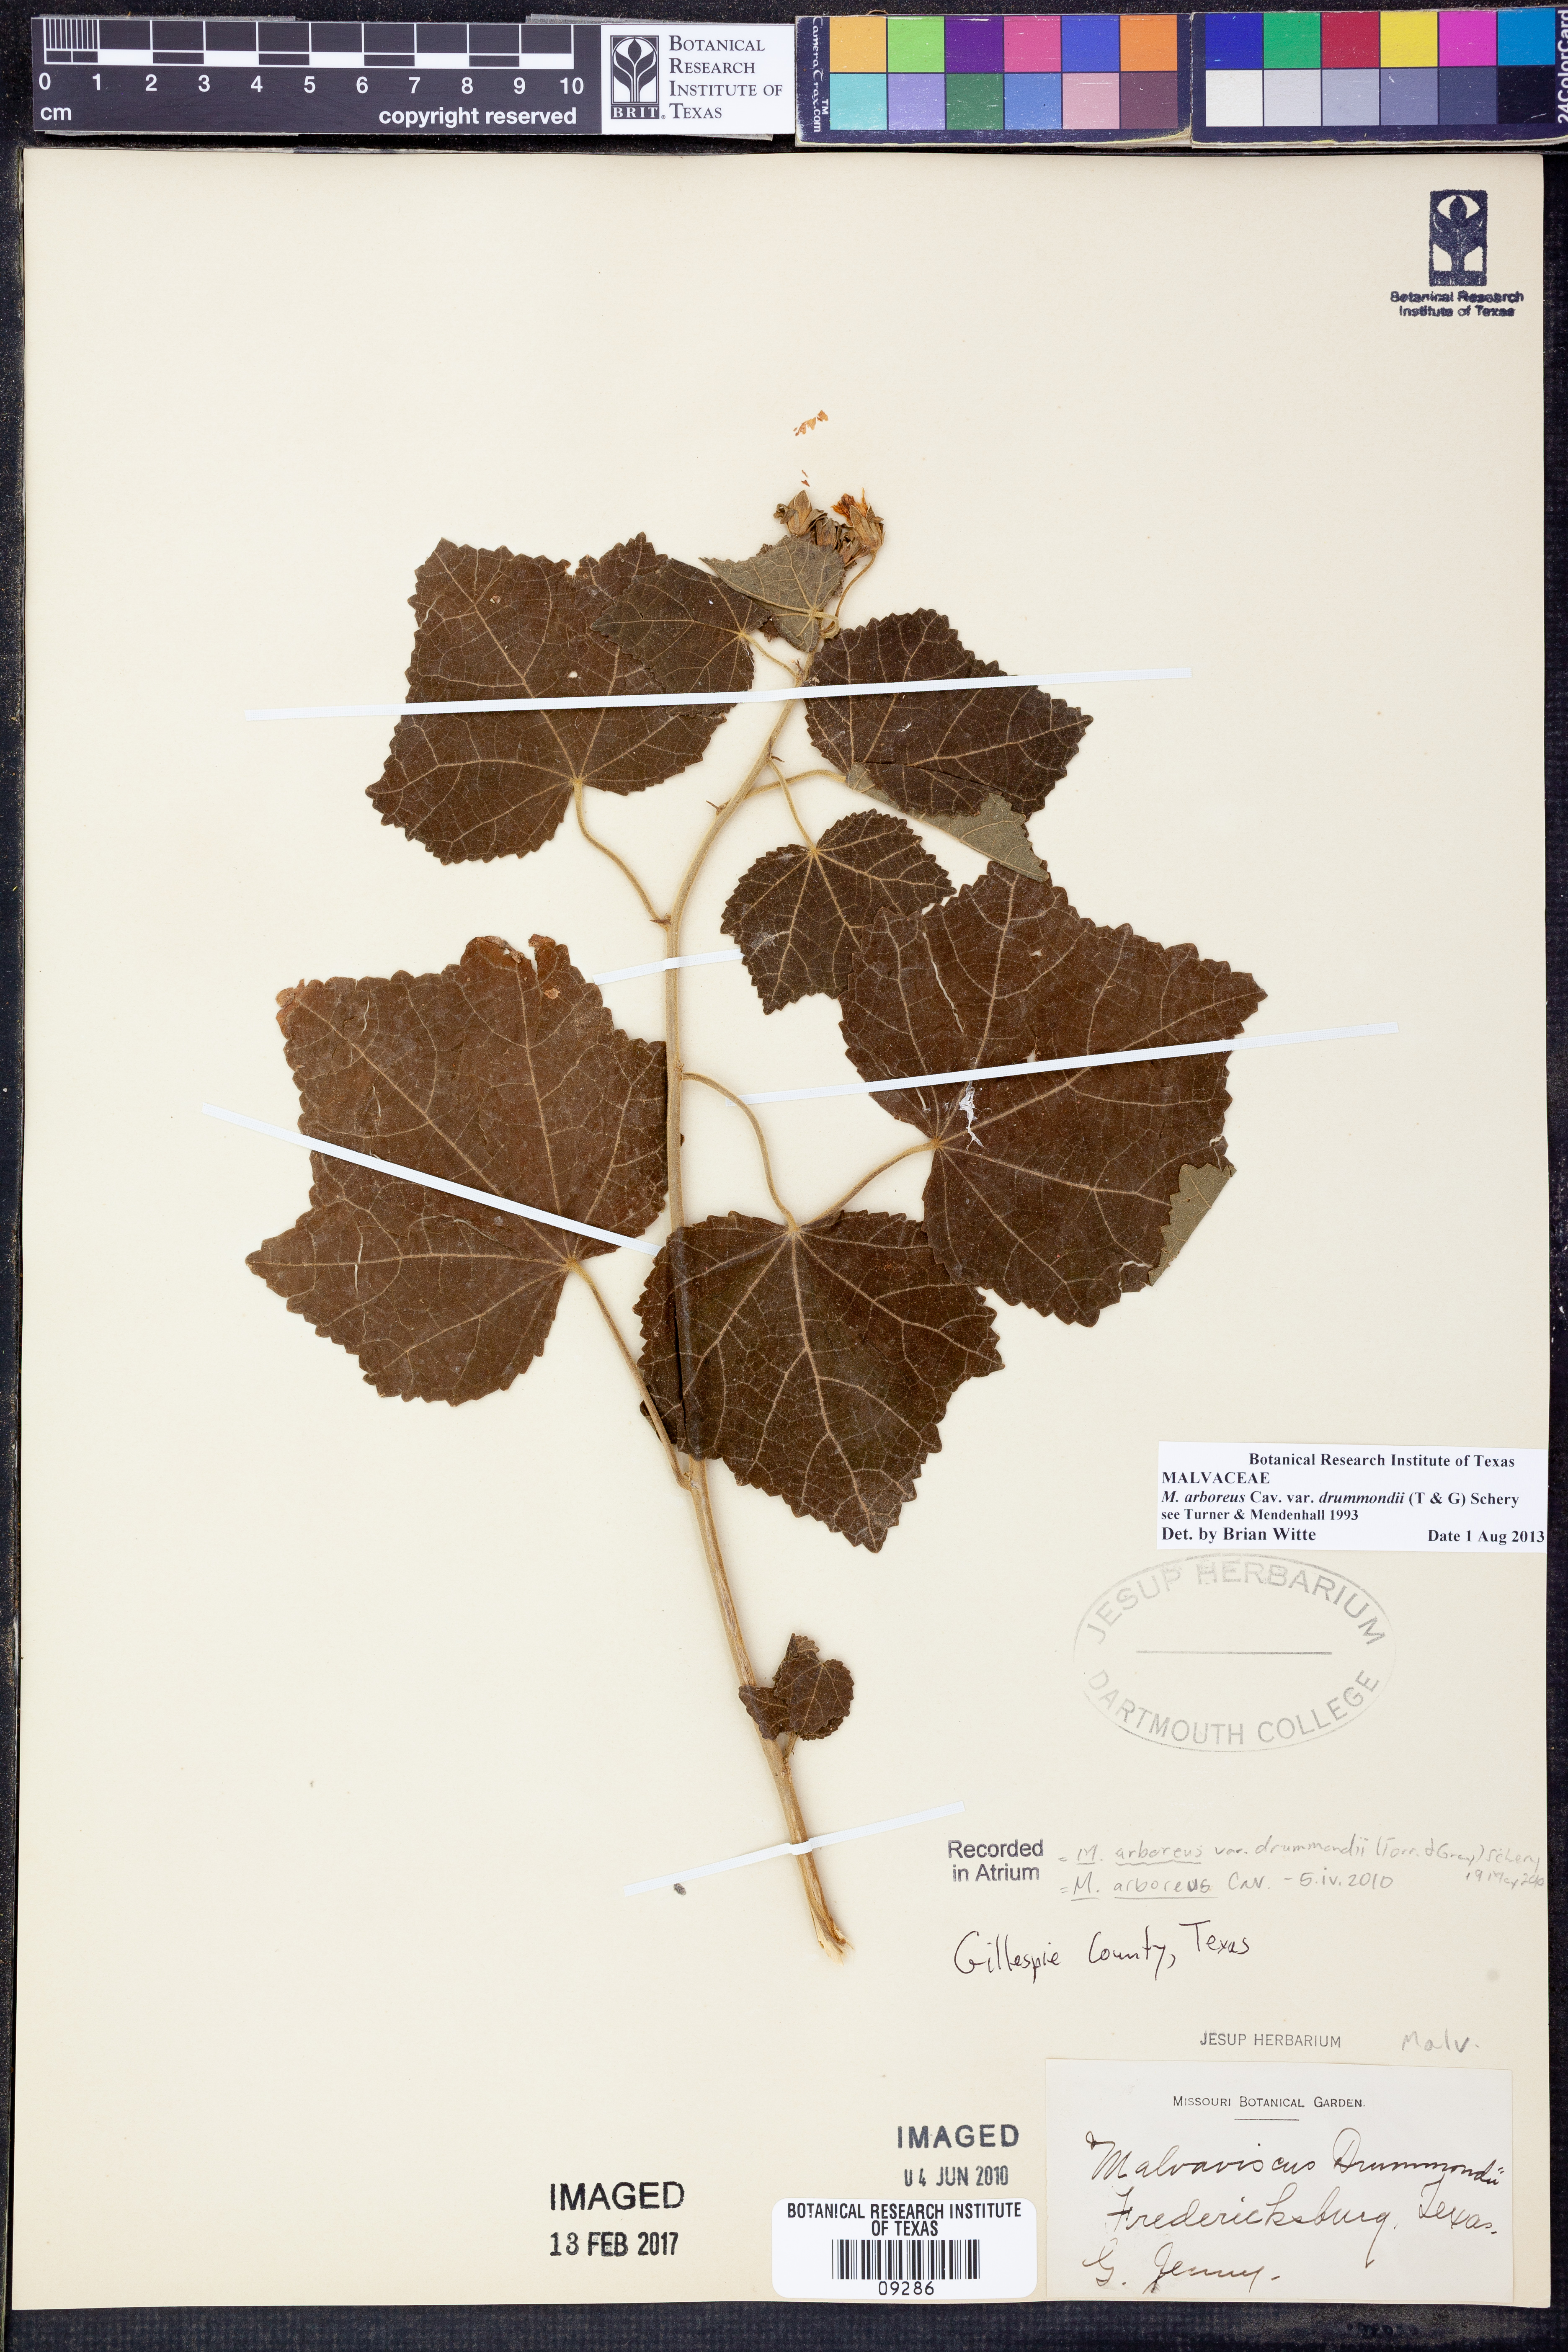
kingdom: Plantae
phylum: Tracheophyta
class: Magnoliopsida
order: Malvales
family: Malvaceae
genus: Malvaviscus
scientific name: Malvaviscus arboreus
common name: Wax mallow
